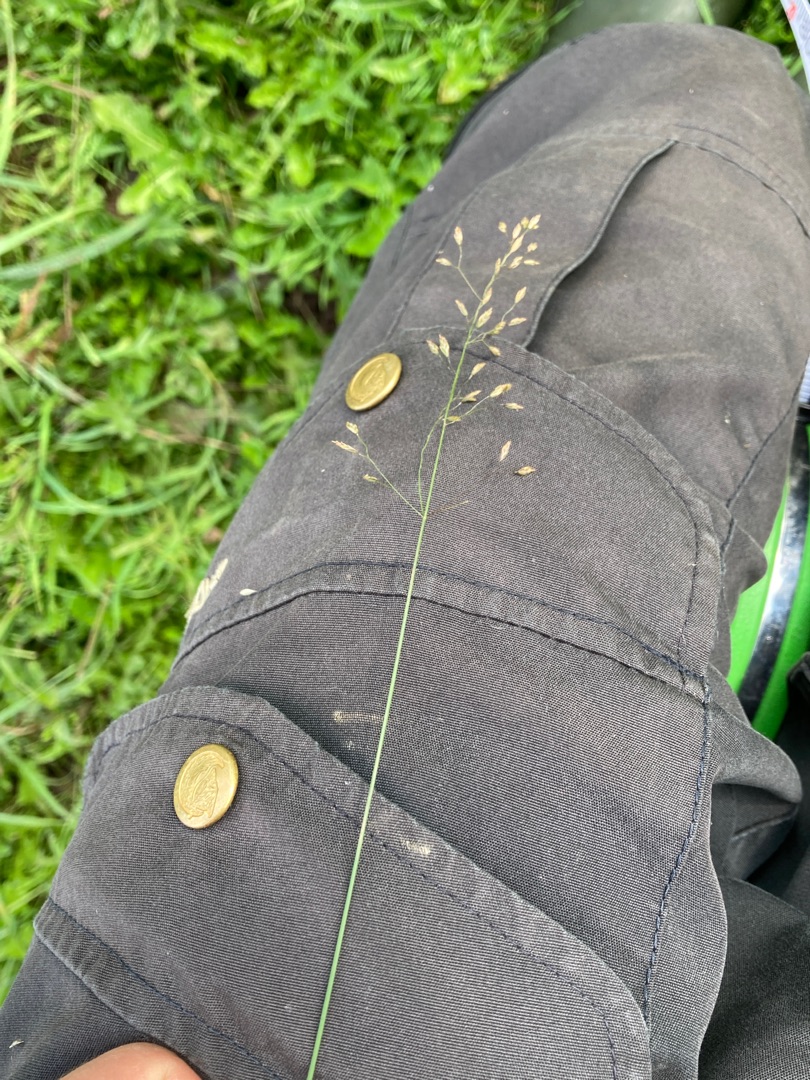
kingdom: Plantae
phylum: Tracheophyta
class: Liliopsida
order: Poales
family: Poaceae
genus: Poa
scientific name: Poa palustris
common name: Stortoppet rapgræs
